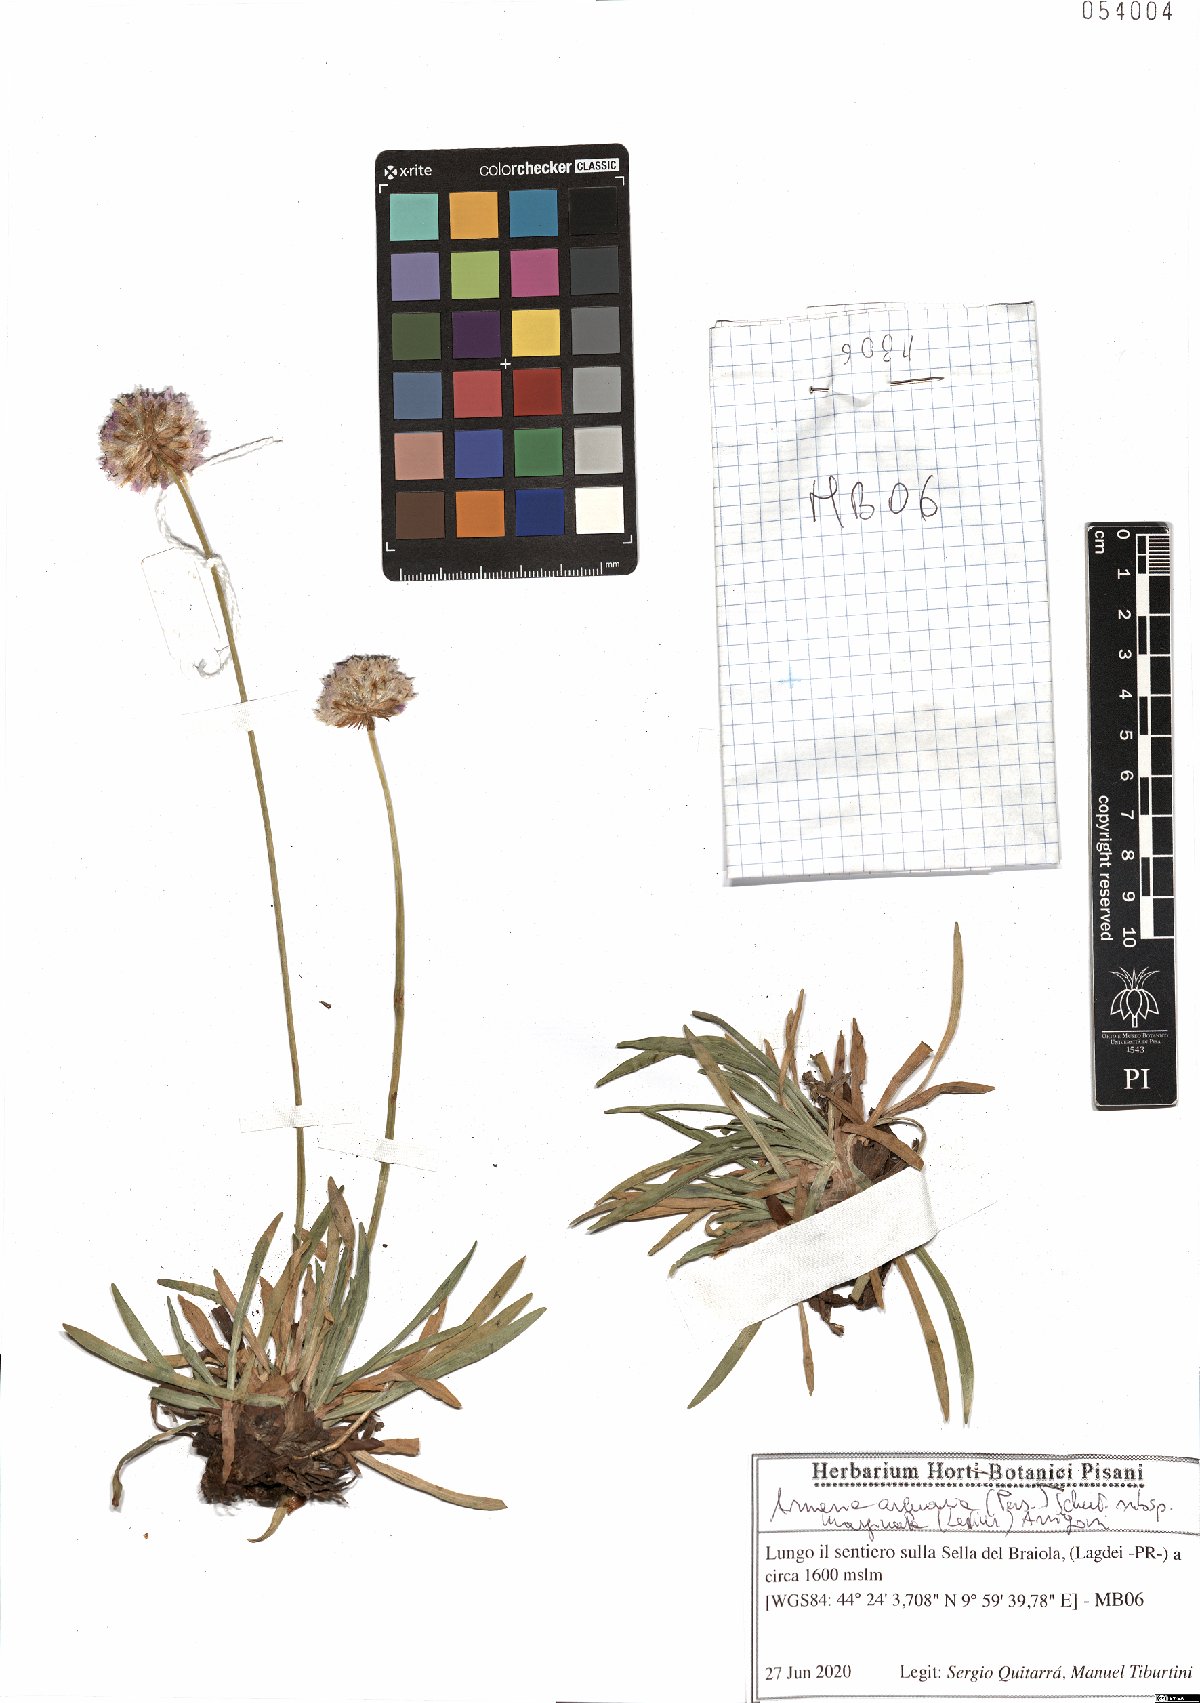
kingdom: Plantae
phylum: Tracheophyta
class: Magnoliopsida
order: Caryophyllales
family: Plumbaginaceae
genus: Armeria
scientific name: Armeria arenaria
